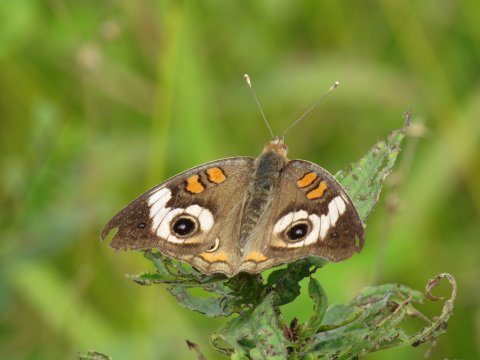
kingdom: Animalia
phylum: Arthropoda
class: Insecta
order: Lepidoptera
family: Nymphalidae
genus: Junonia
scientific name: Junonia coenia
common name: Common Buckeye
